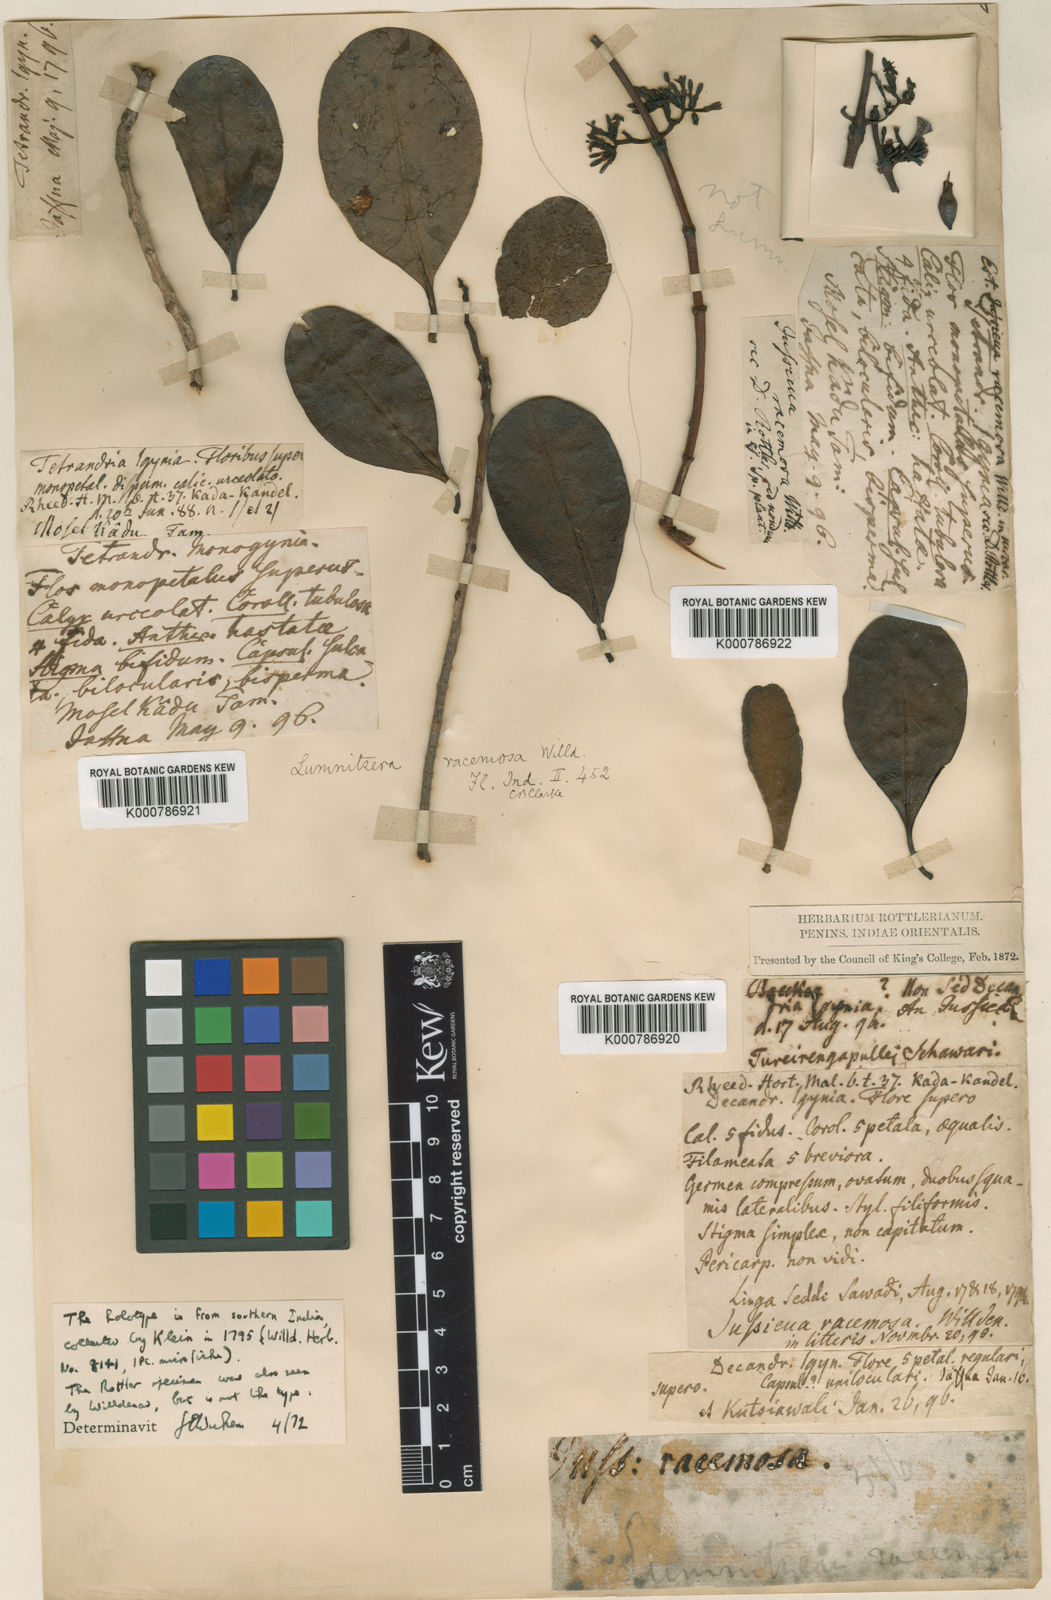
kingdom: Plantae
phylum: Tracheophyta
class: Magnoliopsida
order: Myrtales
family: Combretaceae
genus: Lumnitzera
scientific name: Lumnitzera racemosa
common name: White-flowered black mangrove
